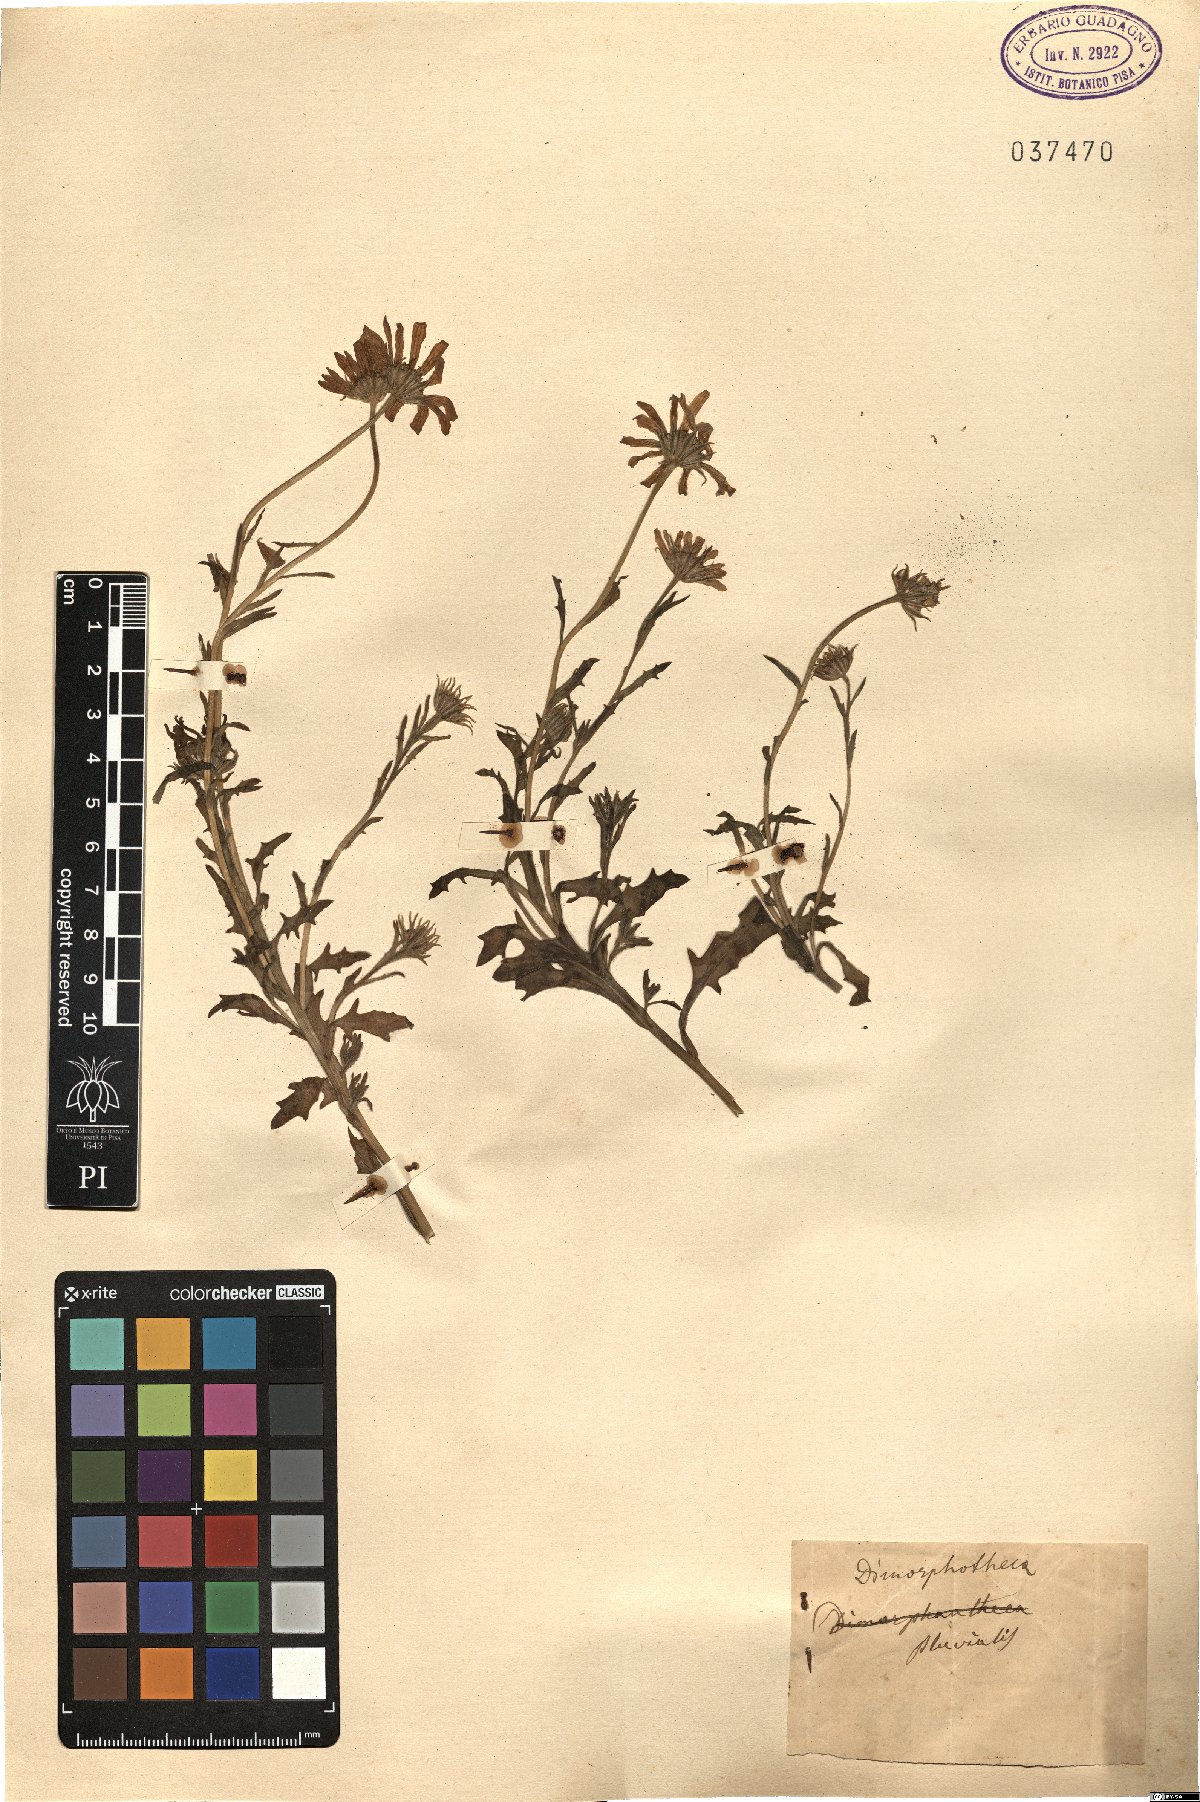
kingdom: Plantae
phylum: Tracheophyta
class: Magnoliopsida
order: Asterales
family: Asteraceae
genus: Dimorphotheca
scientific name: Dimorphotheca pluvialis
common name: Weather prophet
